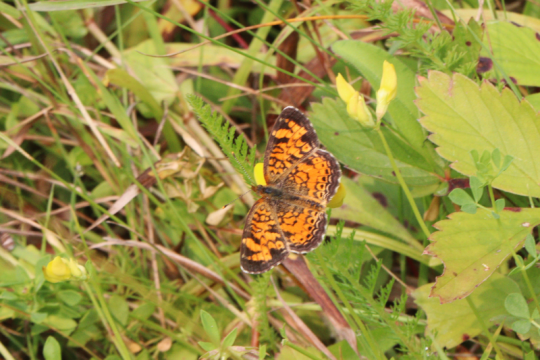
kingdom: Animalia
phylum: Arthropoda
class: Insecta
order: Lepidoptera
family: Nymphalidae
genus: Phyciodes
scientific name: Phyciodes tharos
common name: Pearl Crescent
